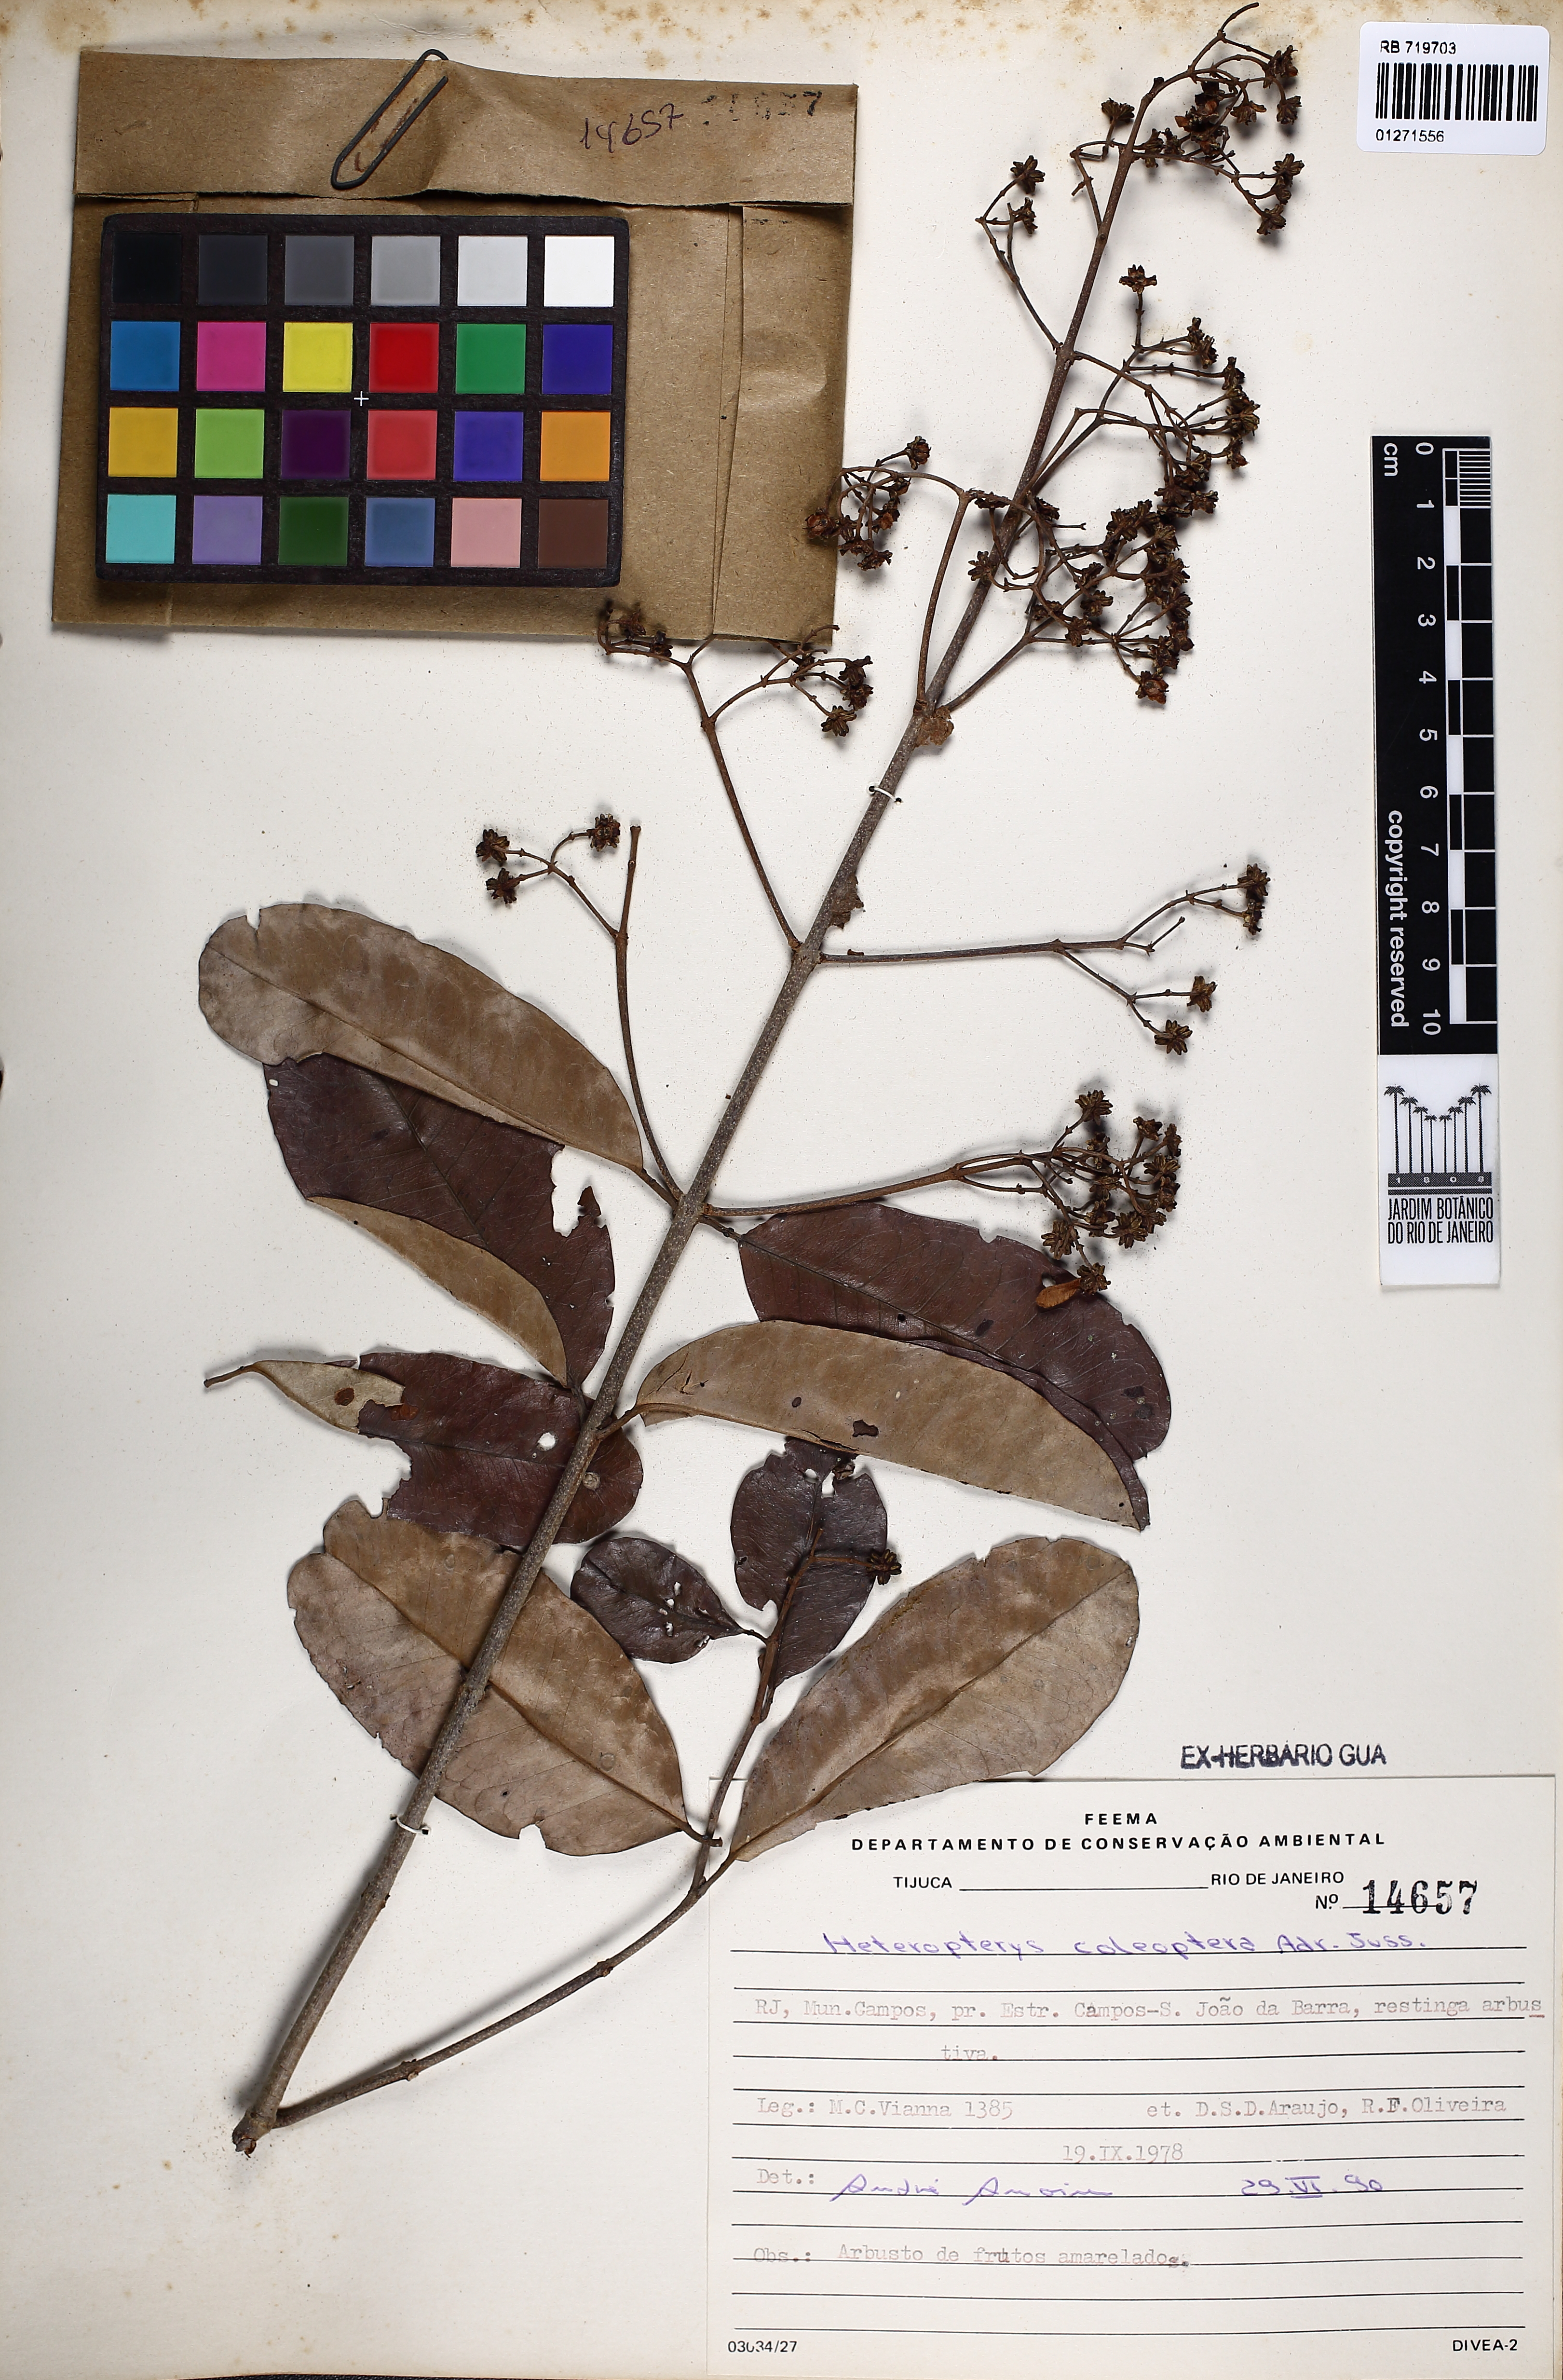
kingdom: Plantae
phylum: Tracheophyta
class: Magnoliopsida
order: Malpighiales
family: Malpighiaceae
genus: Heteropterys
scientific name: Heteropterys coleoptera
